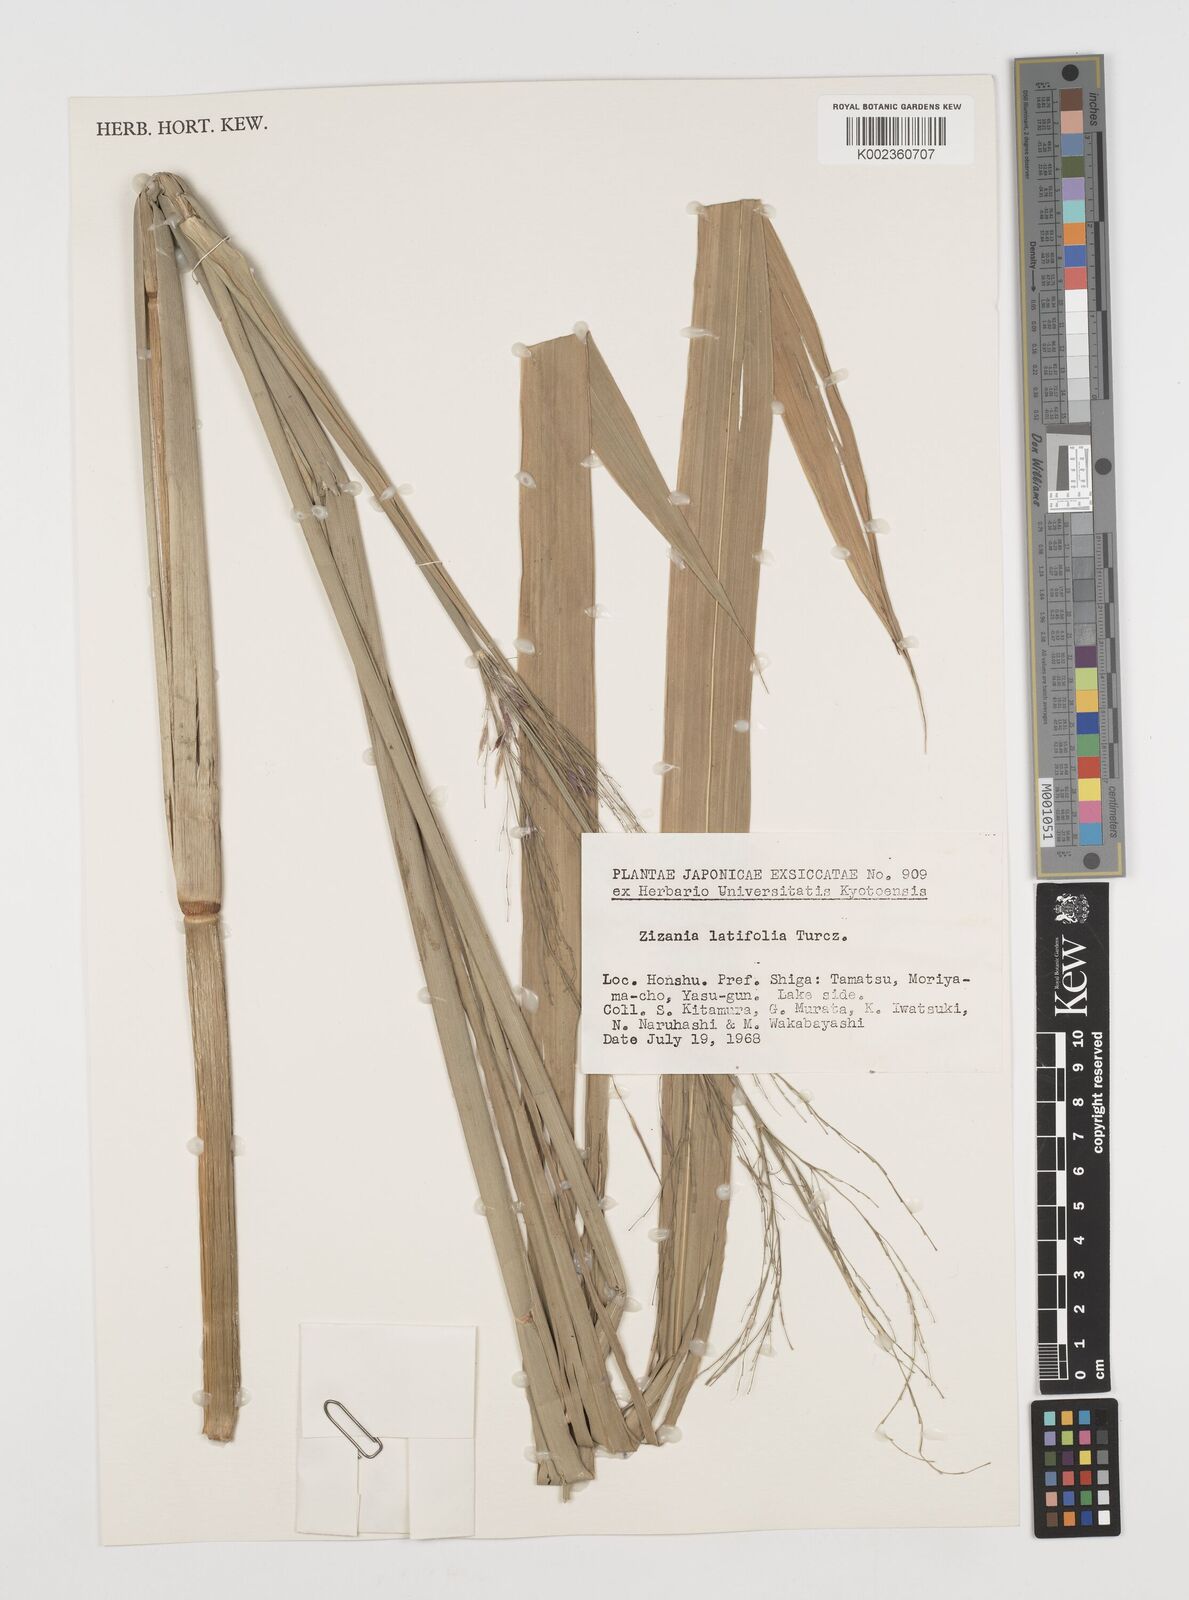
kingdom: Plantae
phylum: Tracheophyta
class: Liliopsida
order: Poales
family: Poaceae
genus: Zizania
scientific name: Zizania latifolia
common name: Manchurian wildrice
